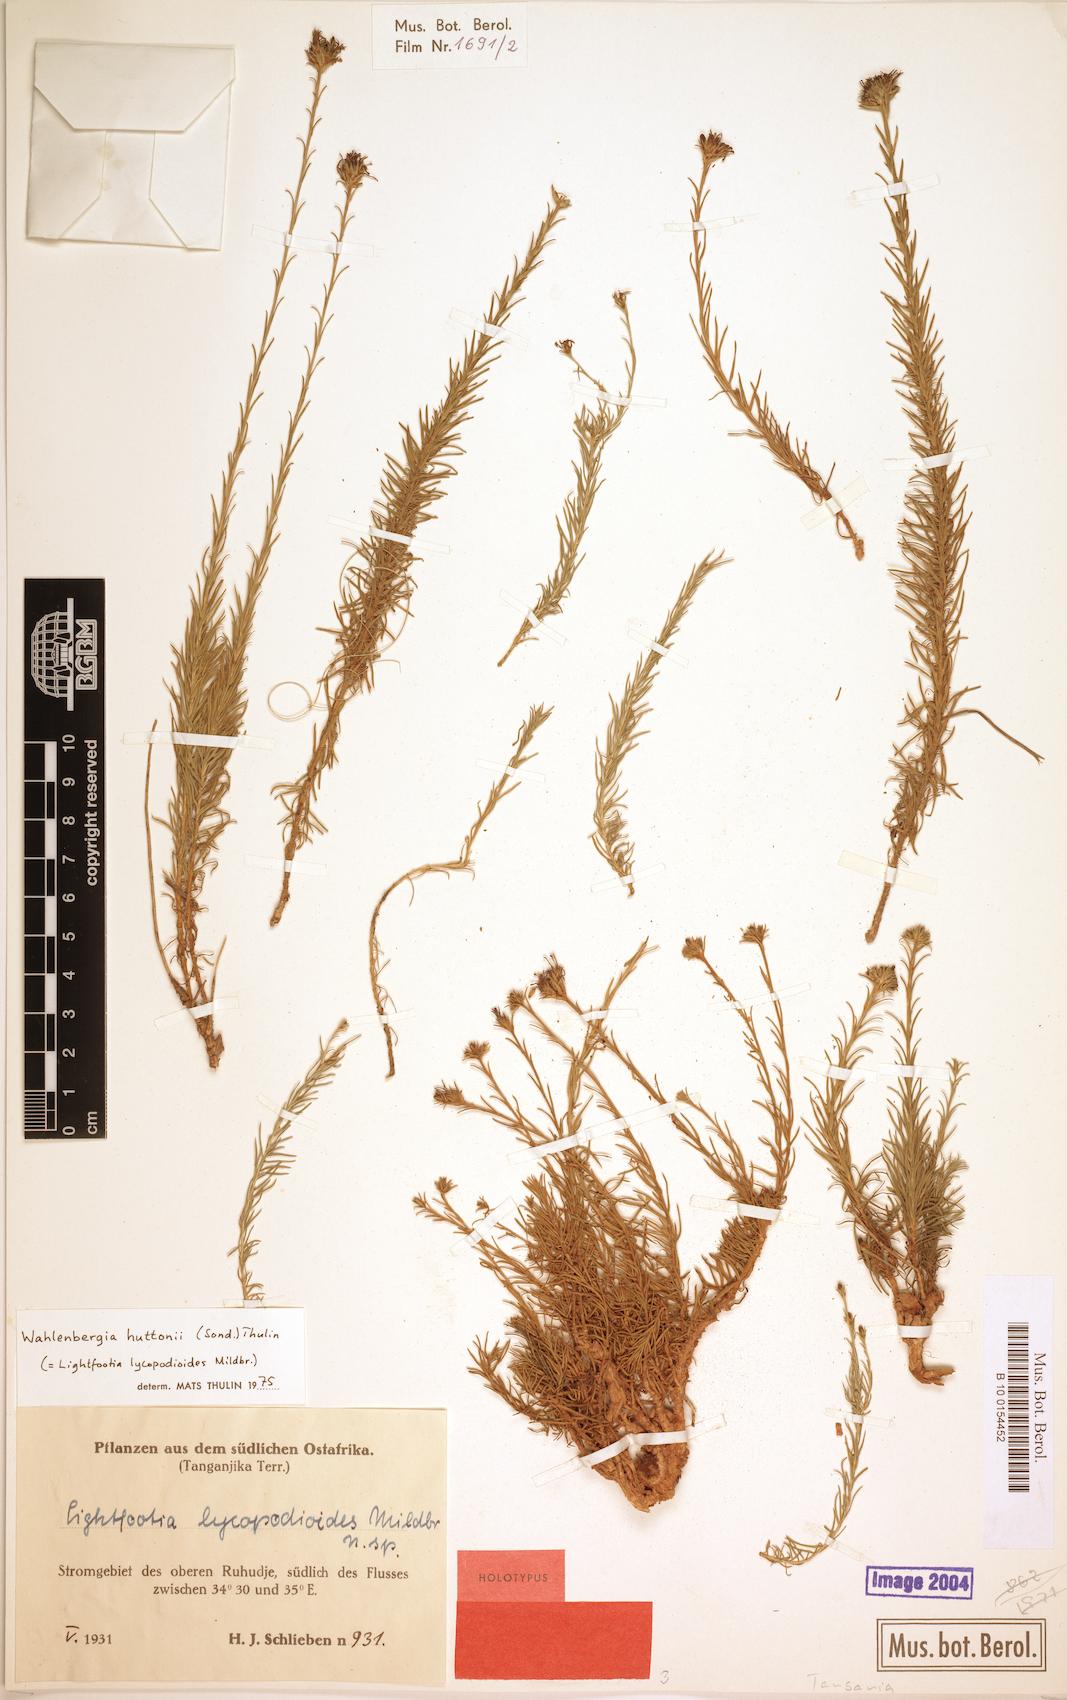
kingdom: Plantae
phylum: Tracheophyta
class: Magnoliopsida
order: Asterales
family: Campanulaceae
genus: Wahlenbergia
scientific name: Wahlenbergia huttonii
